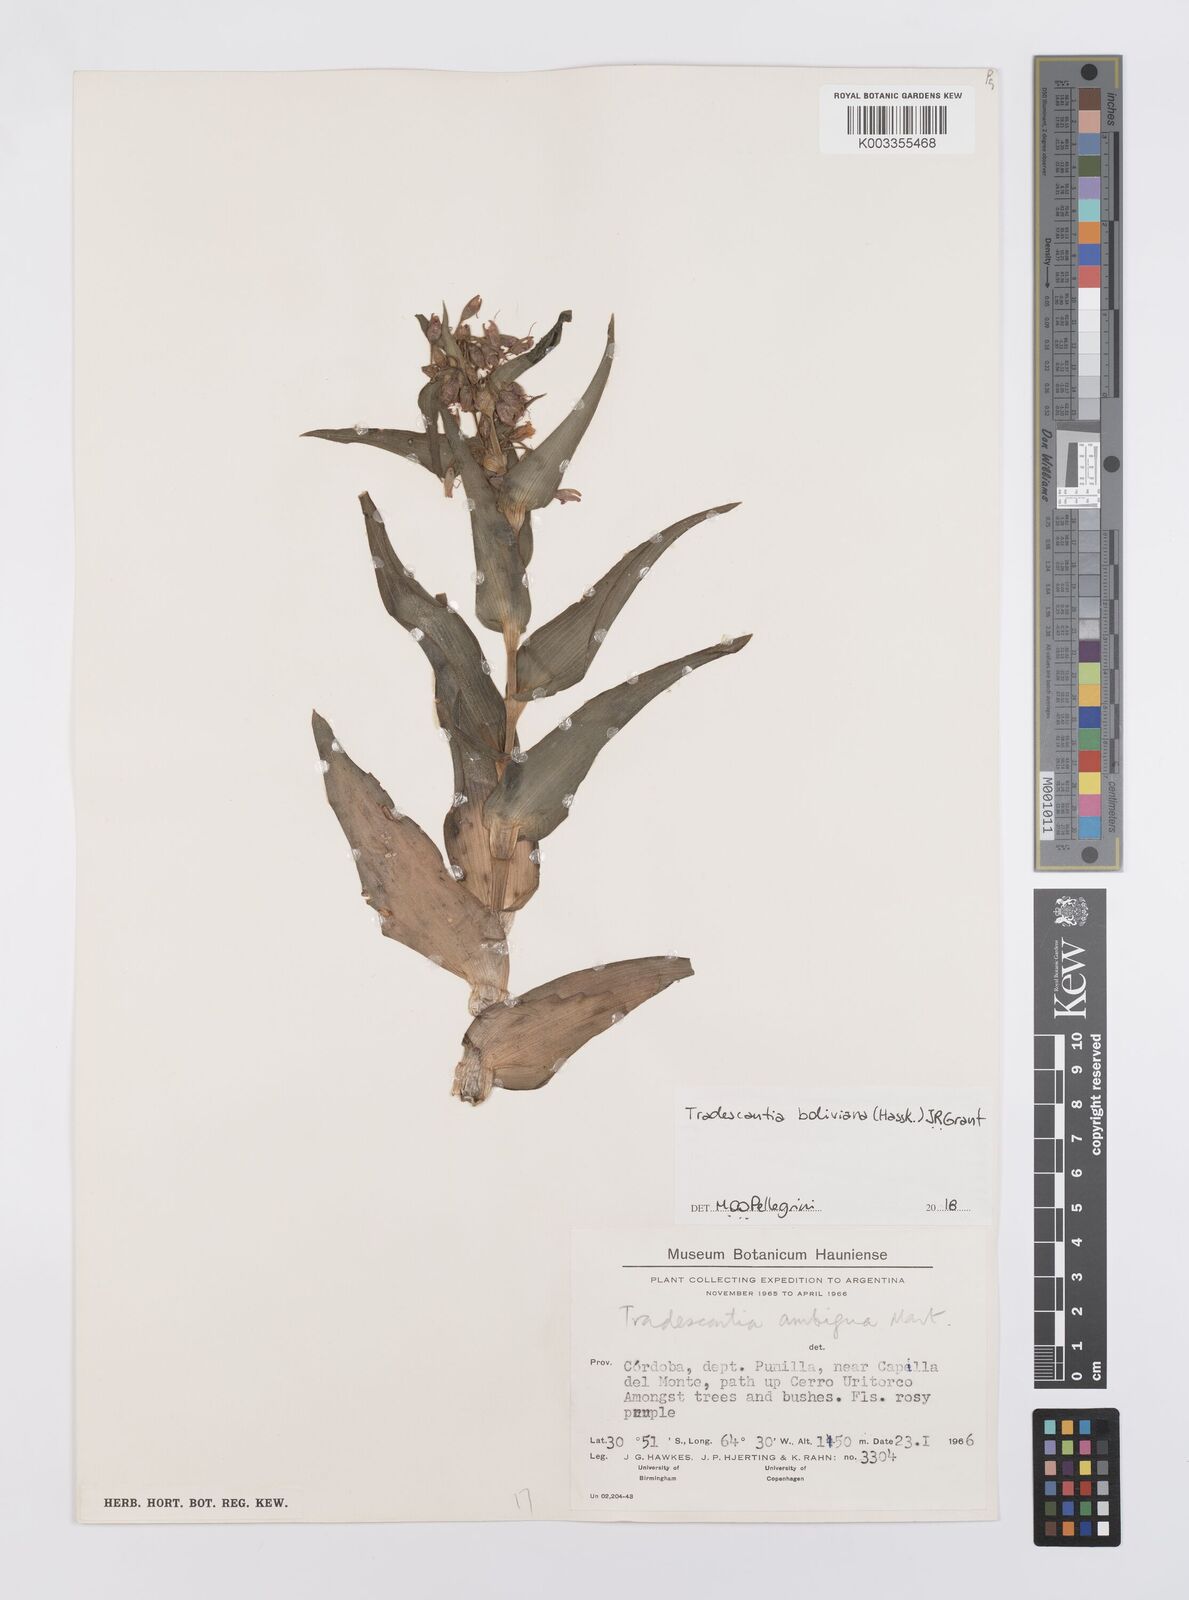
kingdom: Plantae
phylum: Tracheophyta
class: Liliopsida
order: Commelinales
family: Commelinaceae
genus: Tradescantia
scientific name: Tradescantia boliviana
